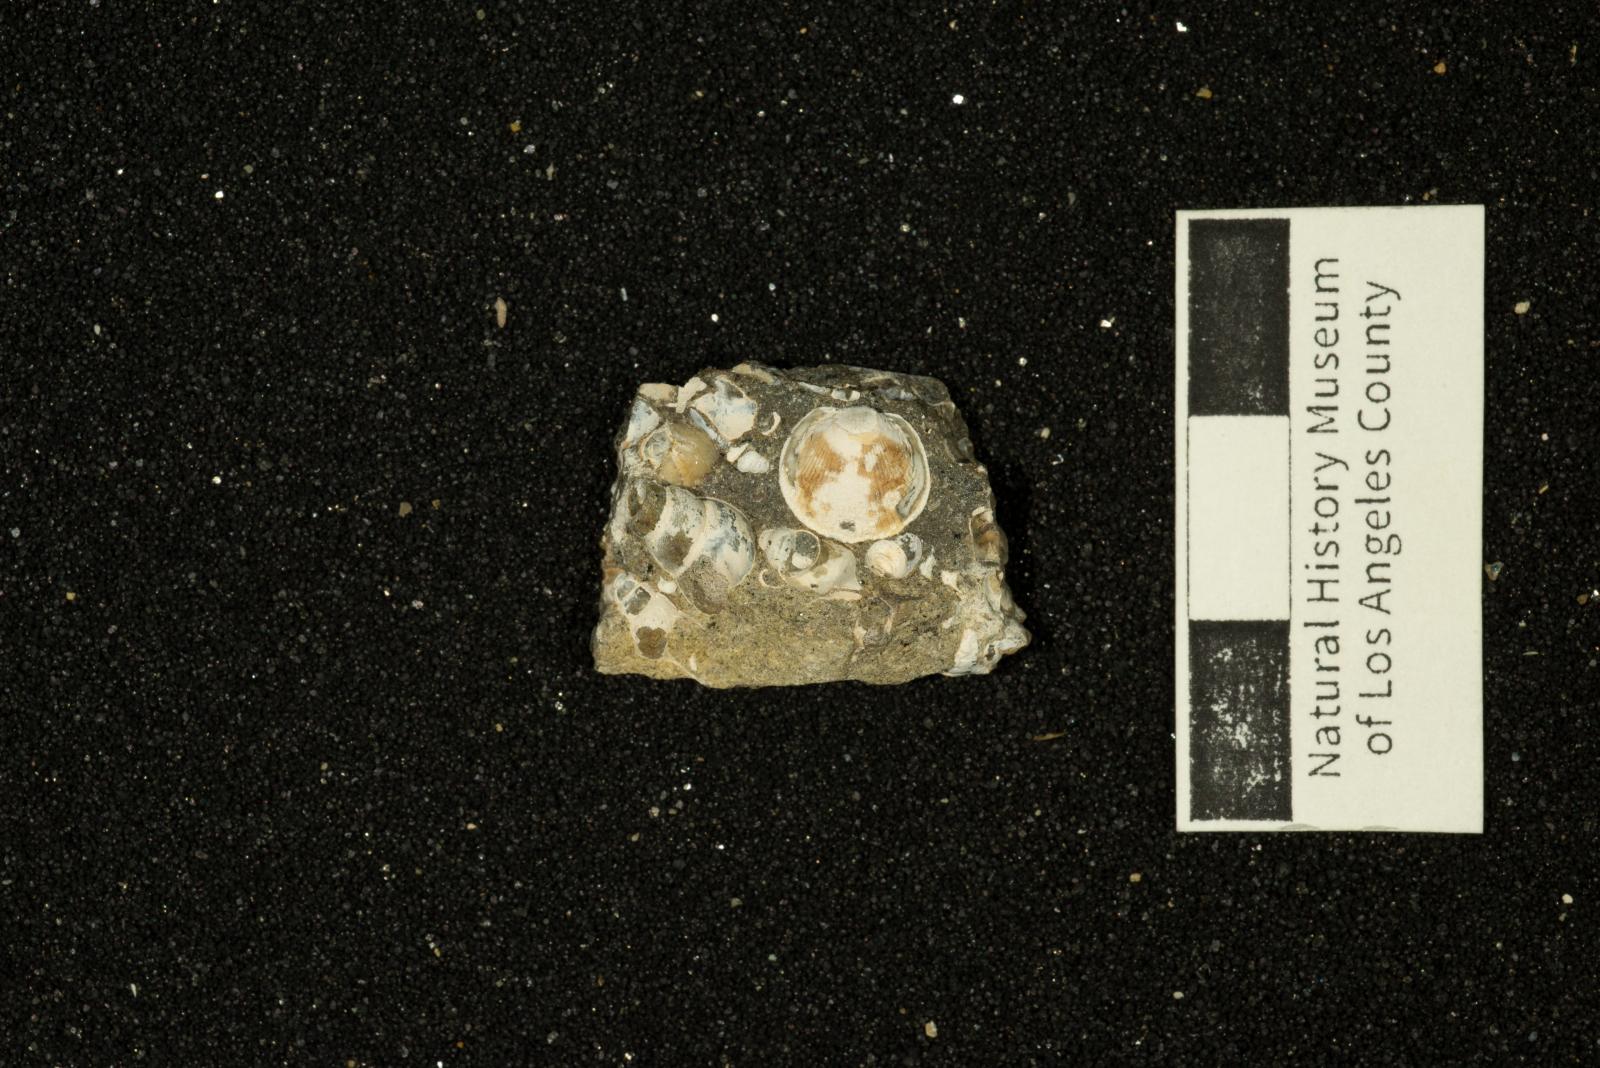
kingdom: Animalia
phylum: Mollusca
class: Bivalvia
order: Arcida
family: Glycymerididae
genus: Glycymeris
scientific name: Glycymeris Pectunculus pacificus
